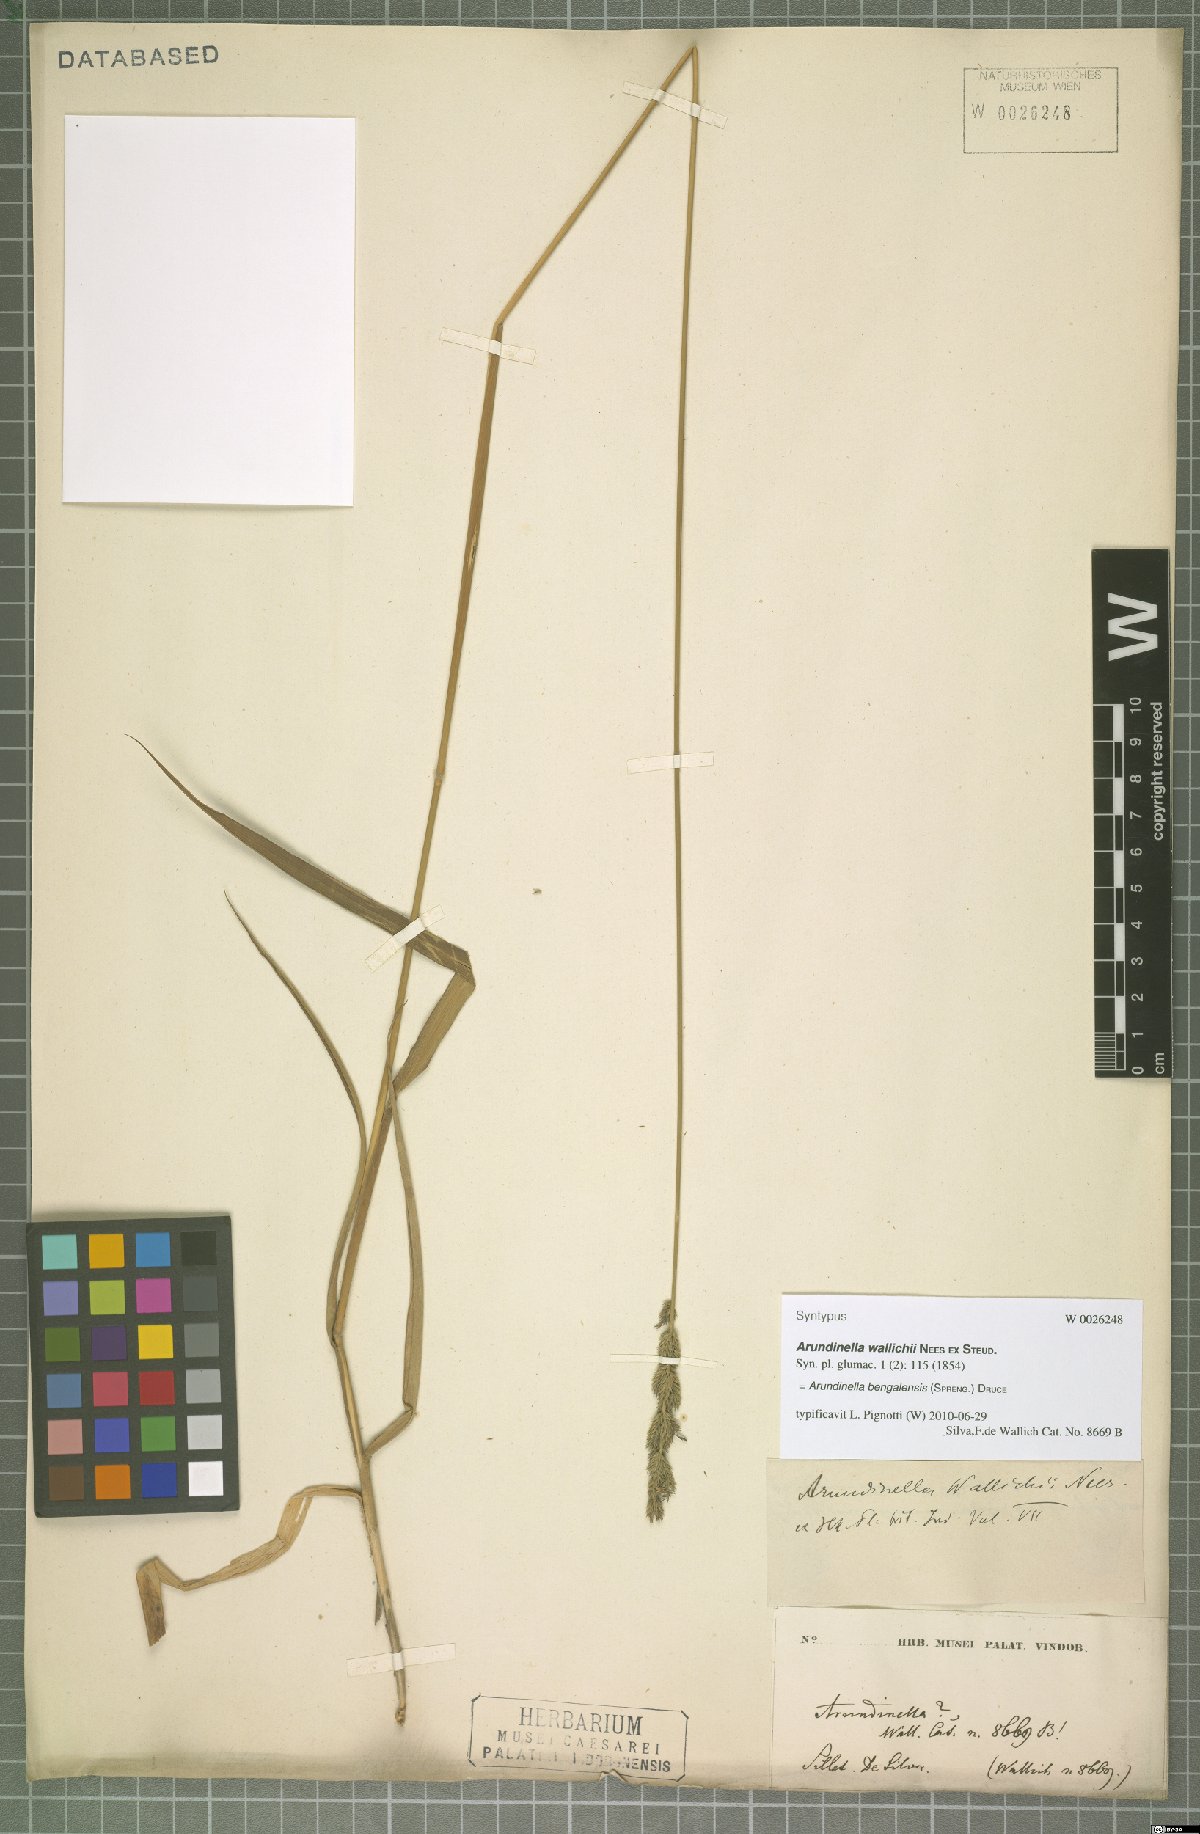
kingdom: Plantae
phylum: Tracheophyta
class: Liliopsida
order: Poales
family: Poaceae
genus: Arundinella
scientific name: Arundinella bengalensis
